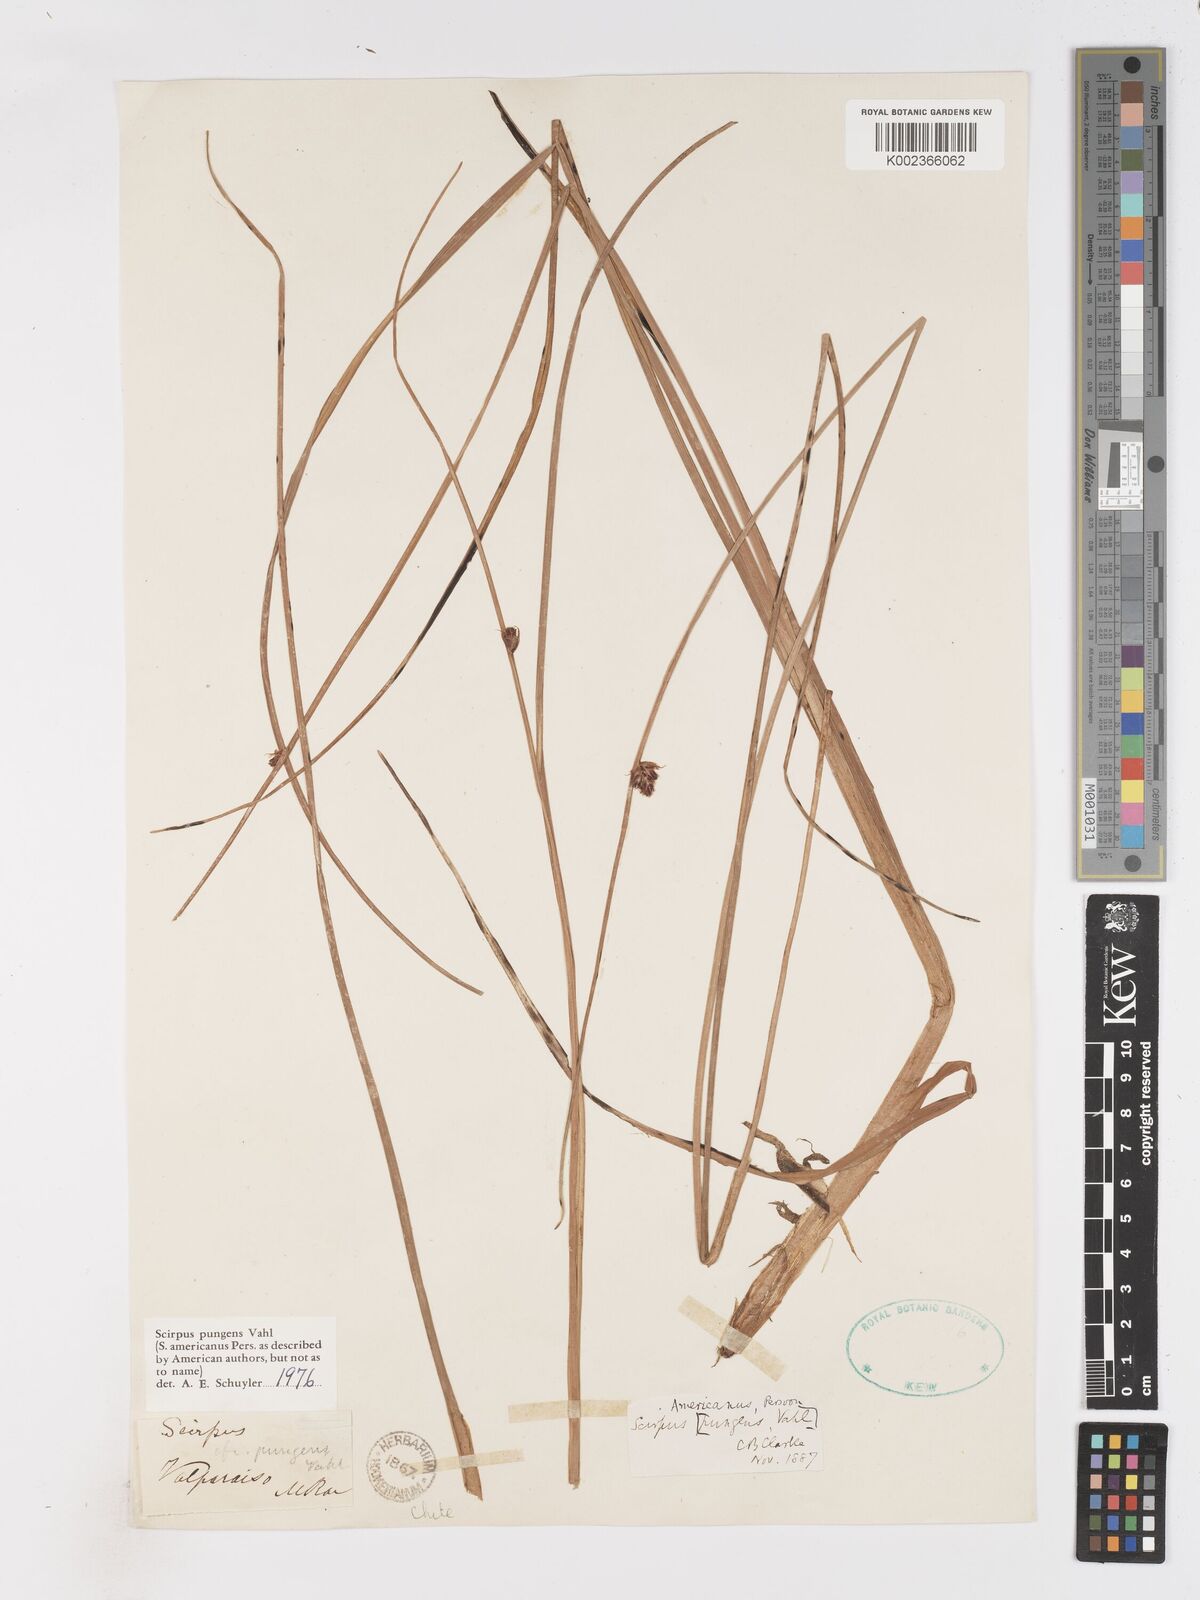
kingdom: Plantae
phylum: Tracheophyta
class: Liliopsida
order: Poales
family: Cyperaceae
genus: Schoenoplectus
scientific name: Schoenoplectus pungens
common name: Sharp club-rush
